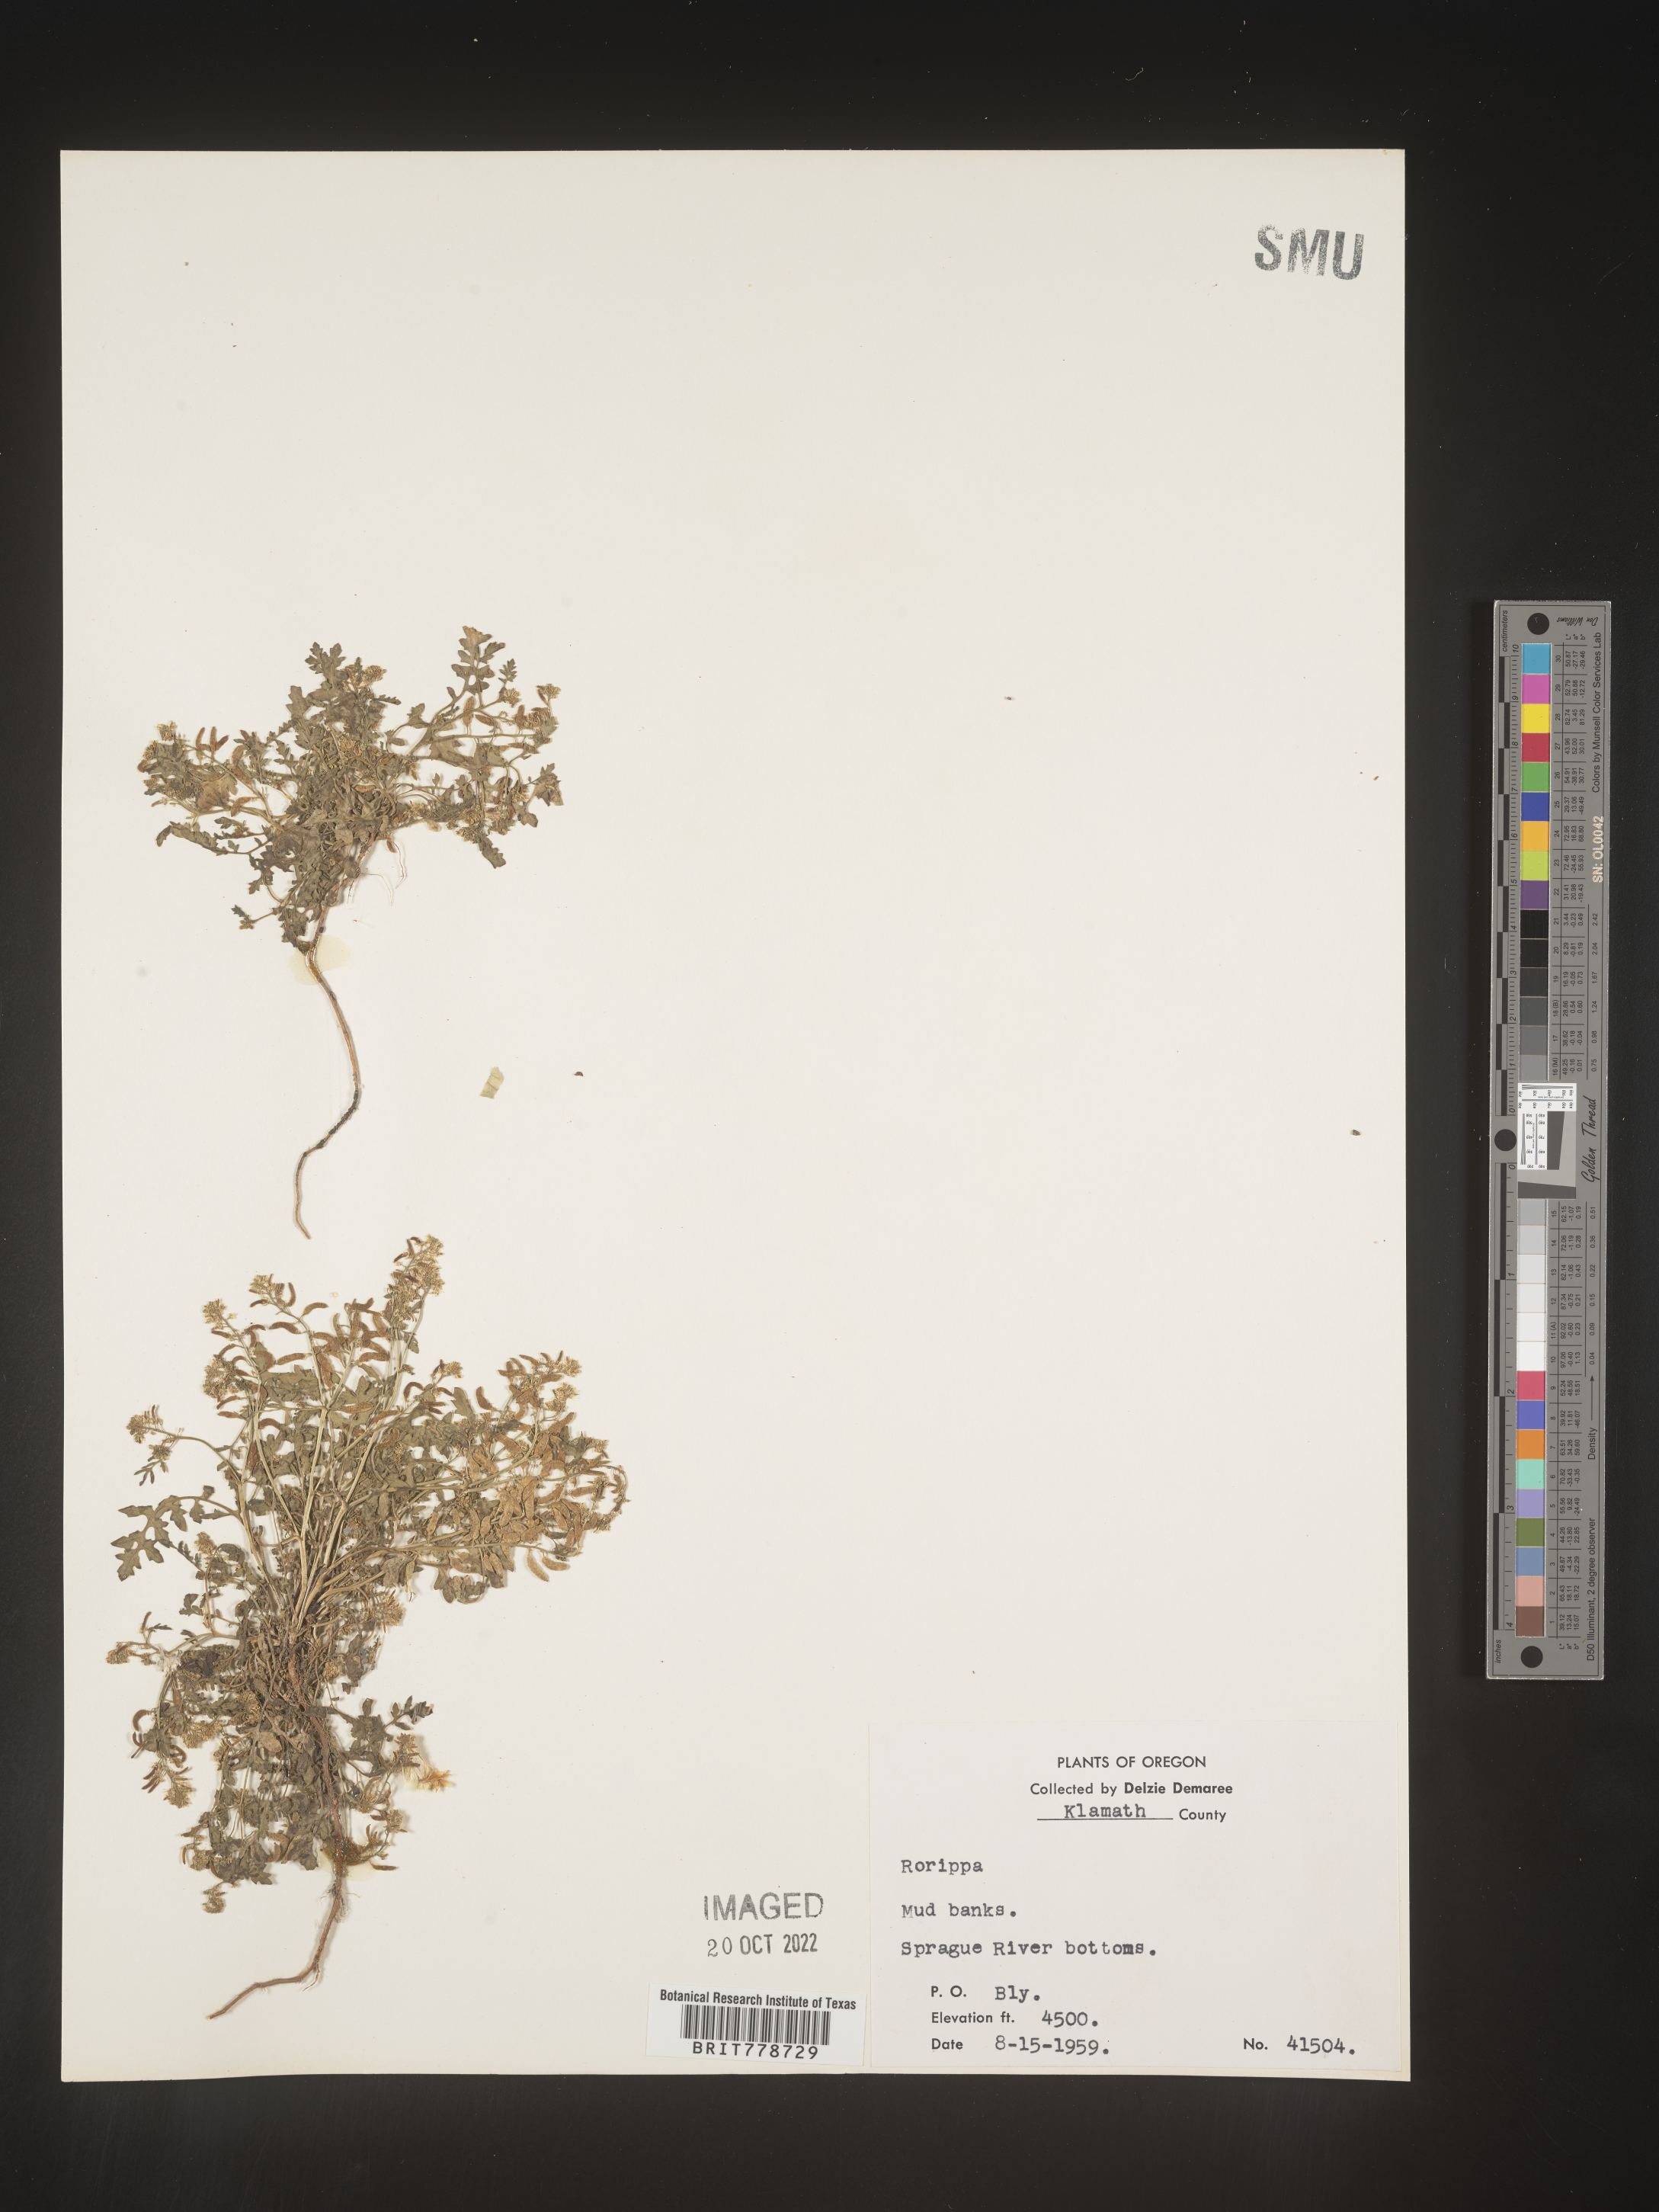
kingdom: Plantae
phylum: Tracheophyta
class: Magnoliopsida
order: Brassicales
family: Brassicaceae
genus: Rorippa
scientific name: Rorippa
